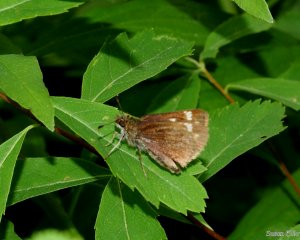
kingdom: Animalia
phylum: Arthropoda
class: Insecta
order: Lepidoptera
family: Hesperiidae
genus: Vernia
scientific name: Vernia verna
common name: Little Glassywing
